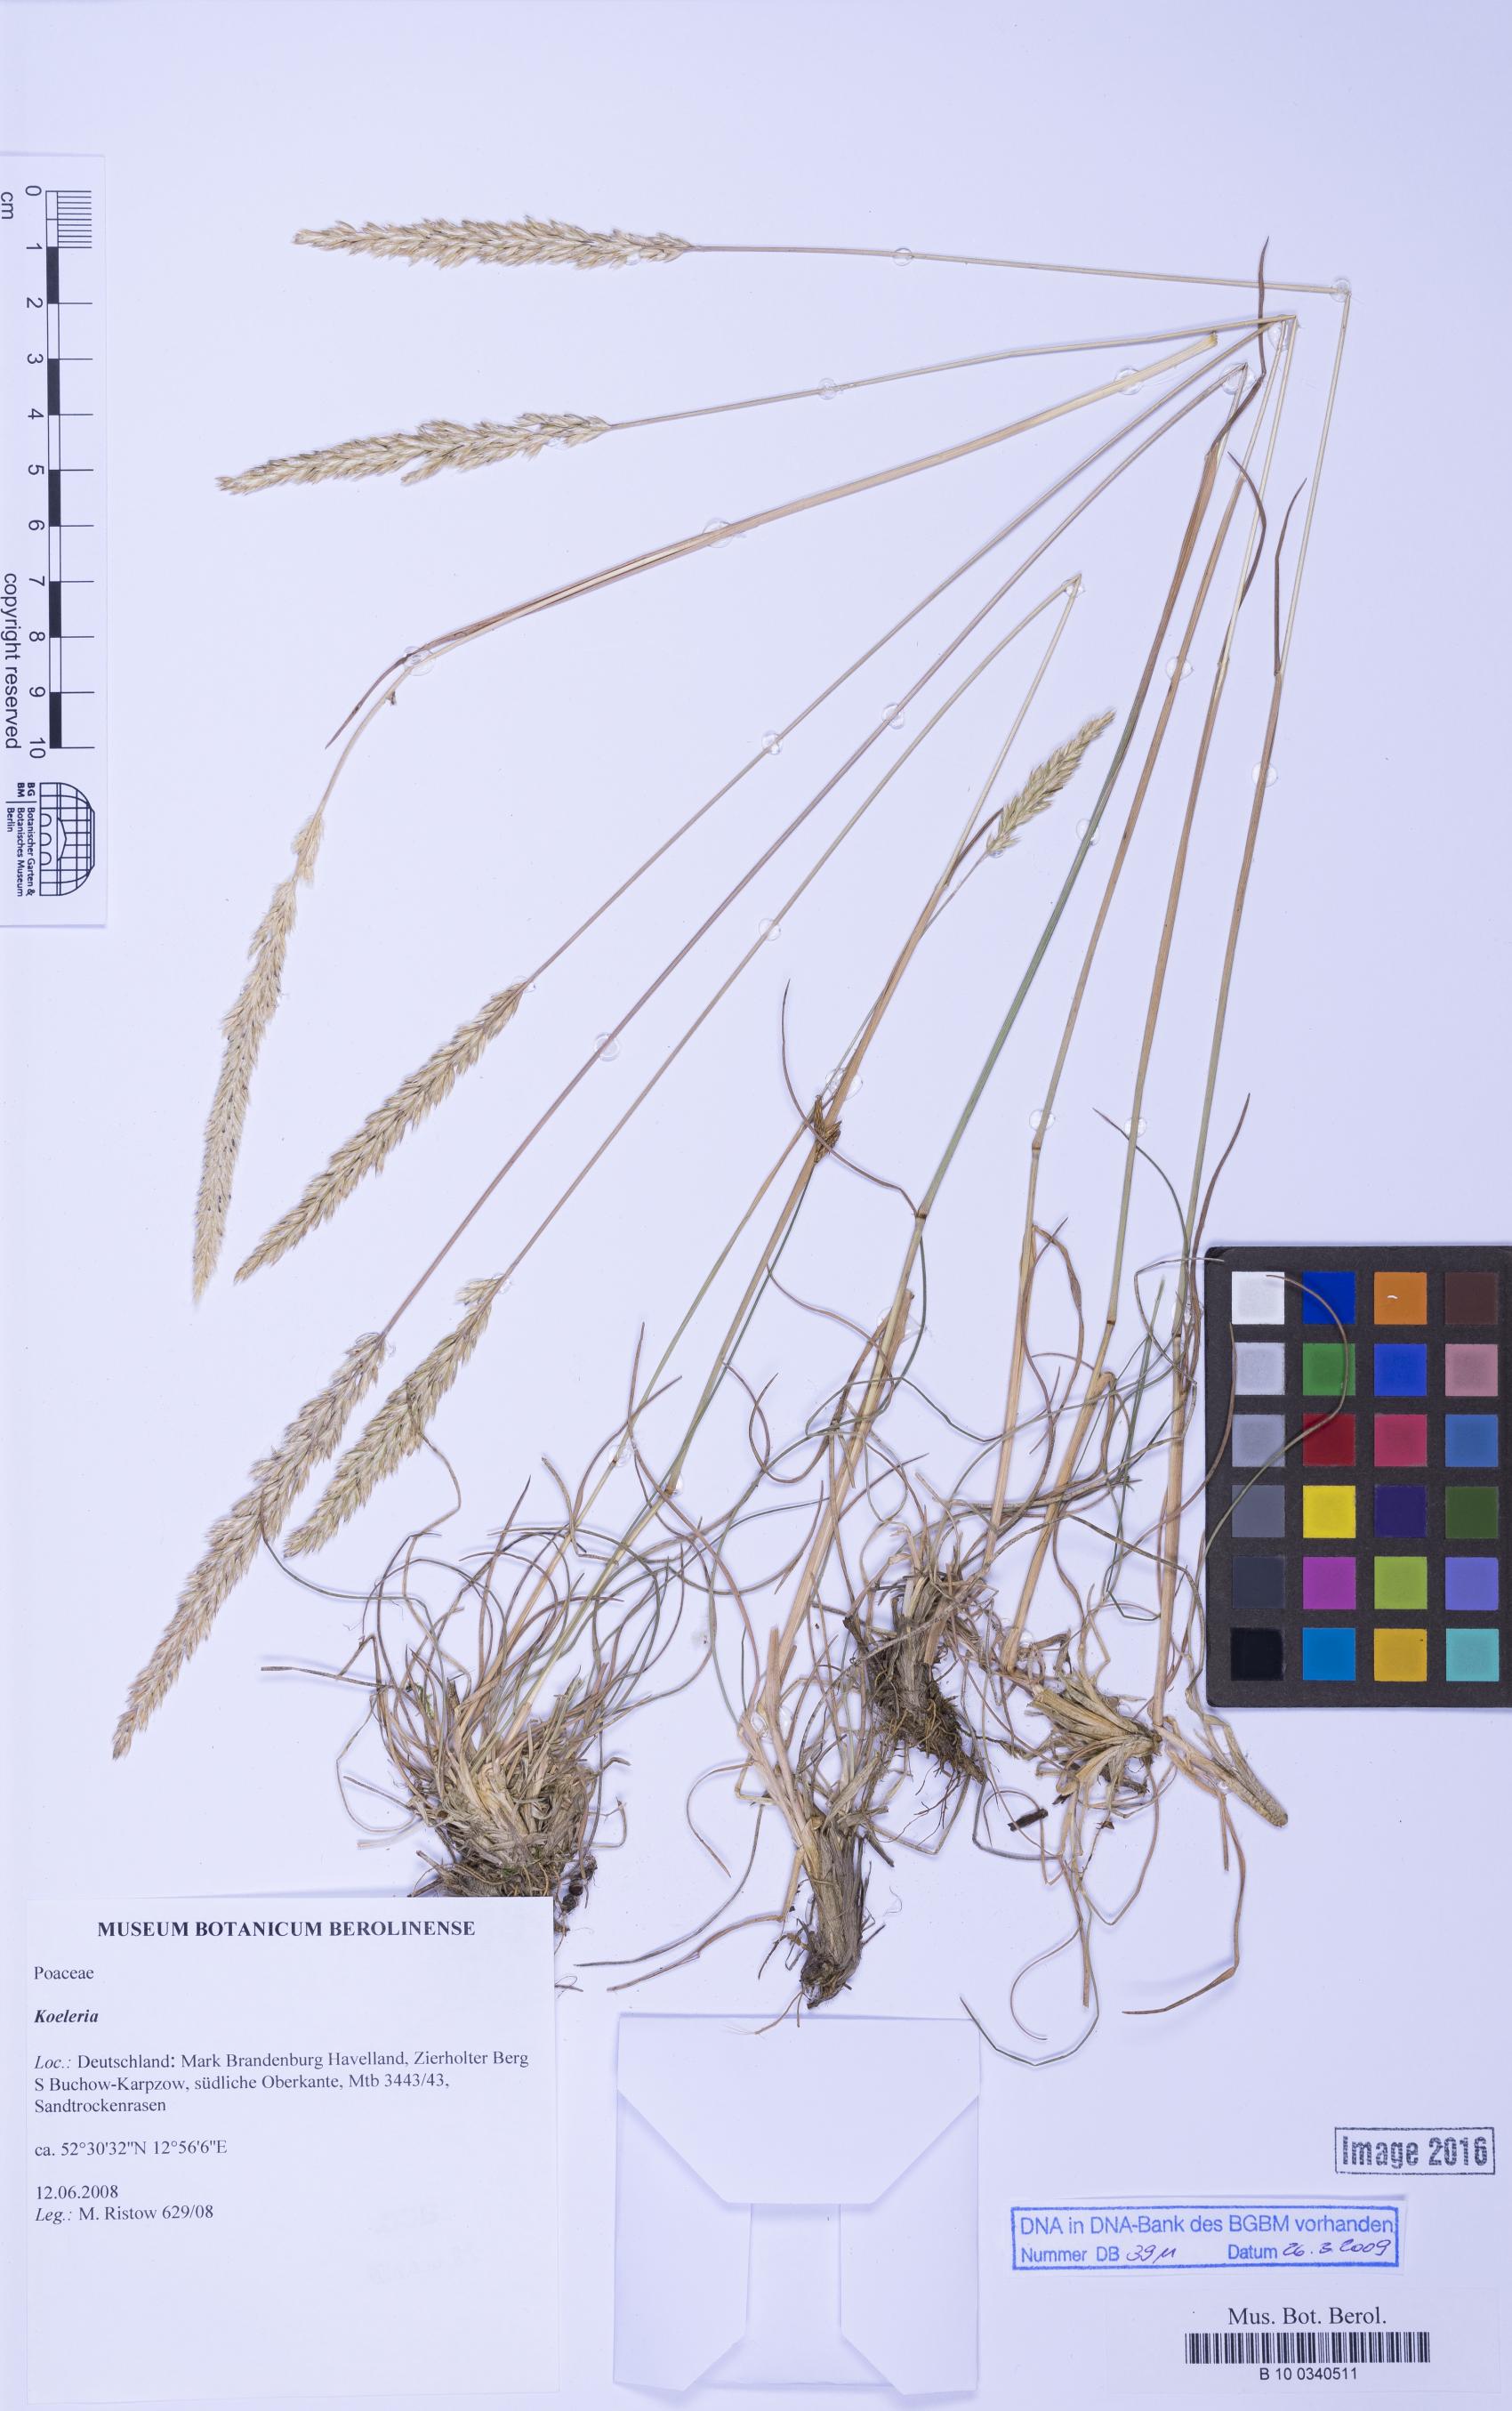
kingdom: Plantae
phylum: Tracheophyta
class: Liliopsida
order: Poales
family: Poaceae
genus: Koeleria
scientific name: Koeleria
